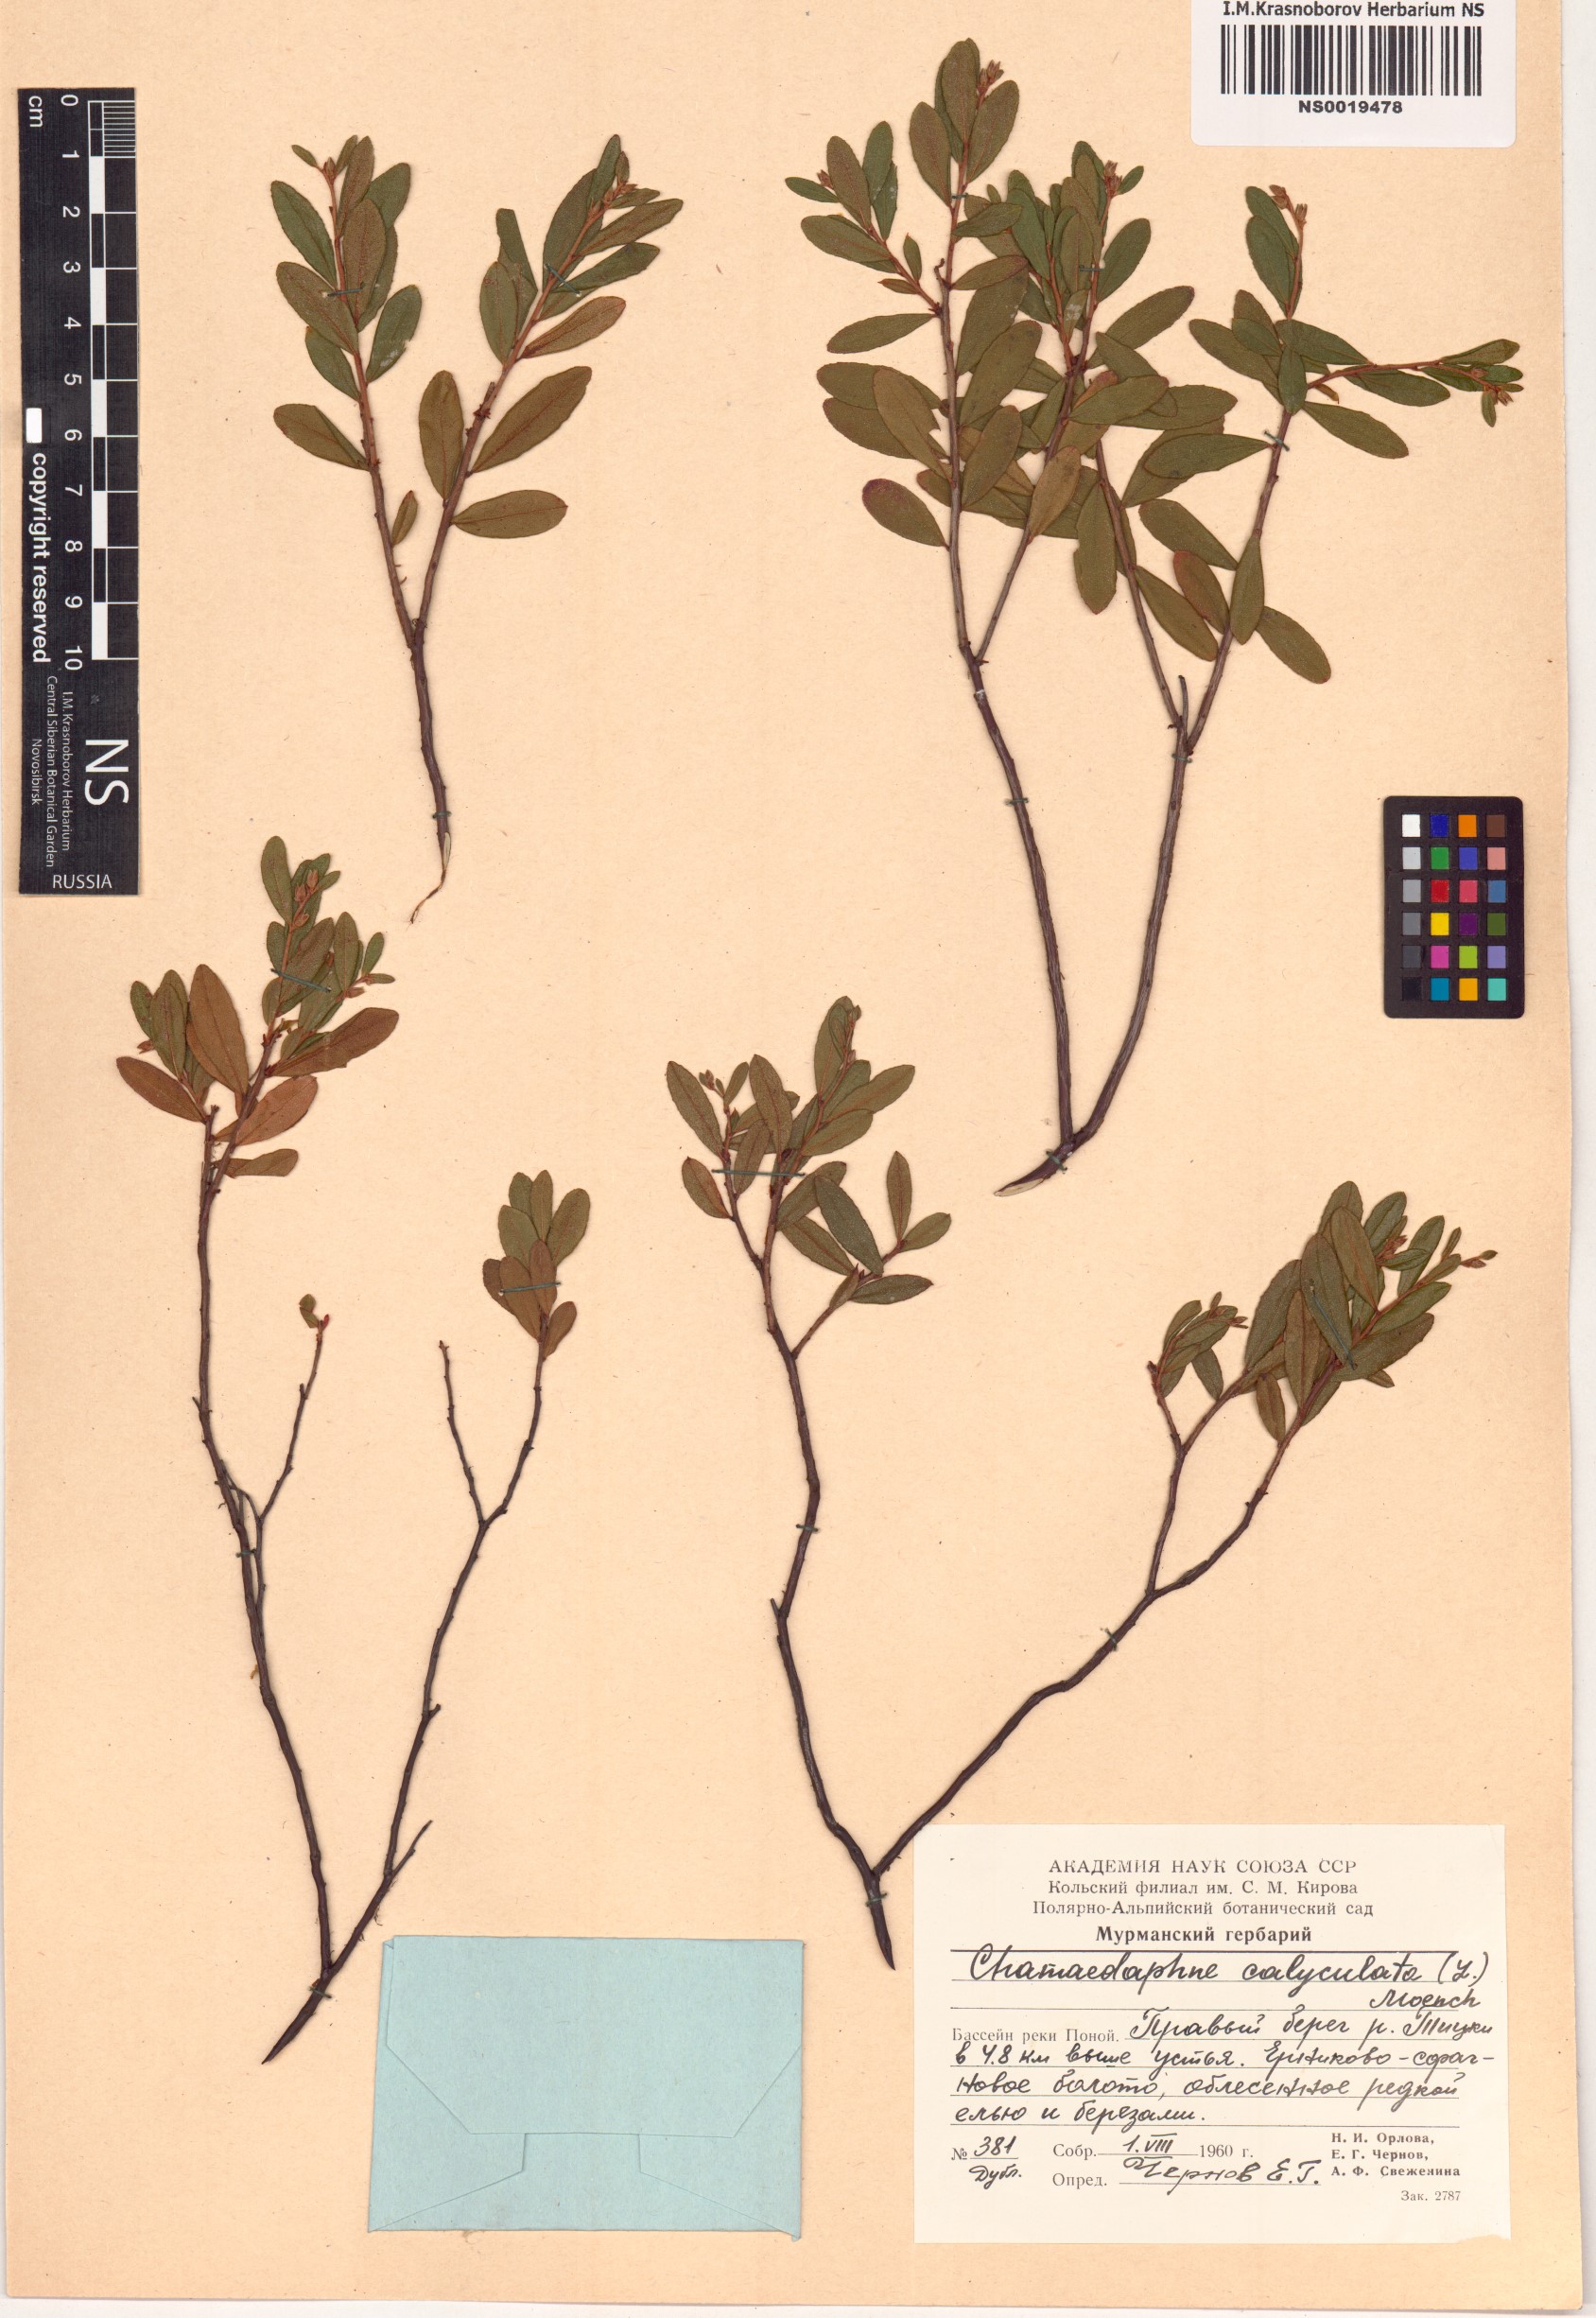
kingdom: Plantae
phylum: Tracheophyta
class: Magnoliopsida
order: Ericales
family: Ericaceae
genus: Chamaedaphne
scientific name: Chamaedaphne calyculata
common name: Leatherleaf
